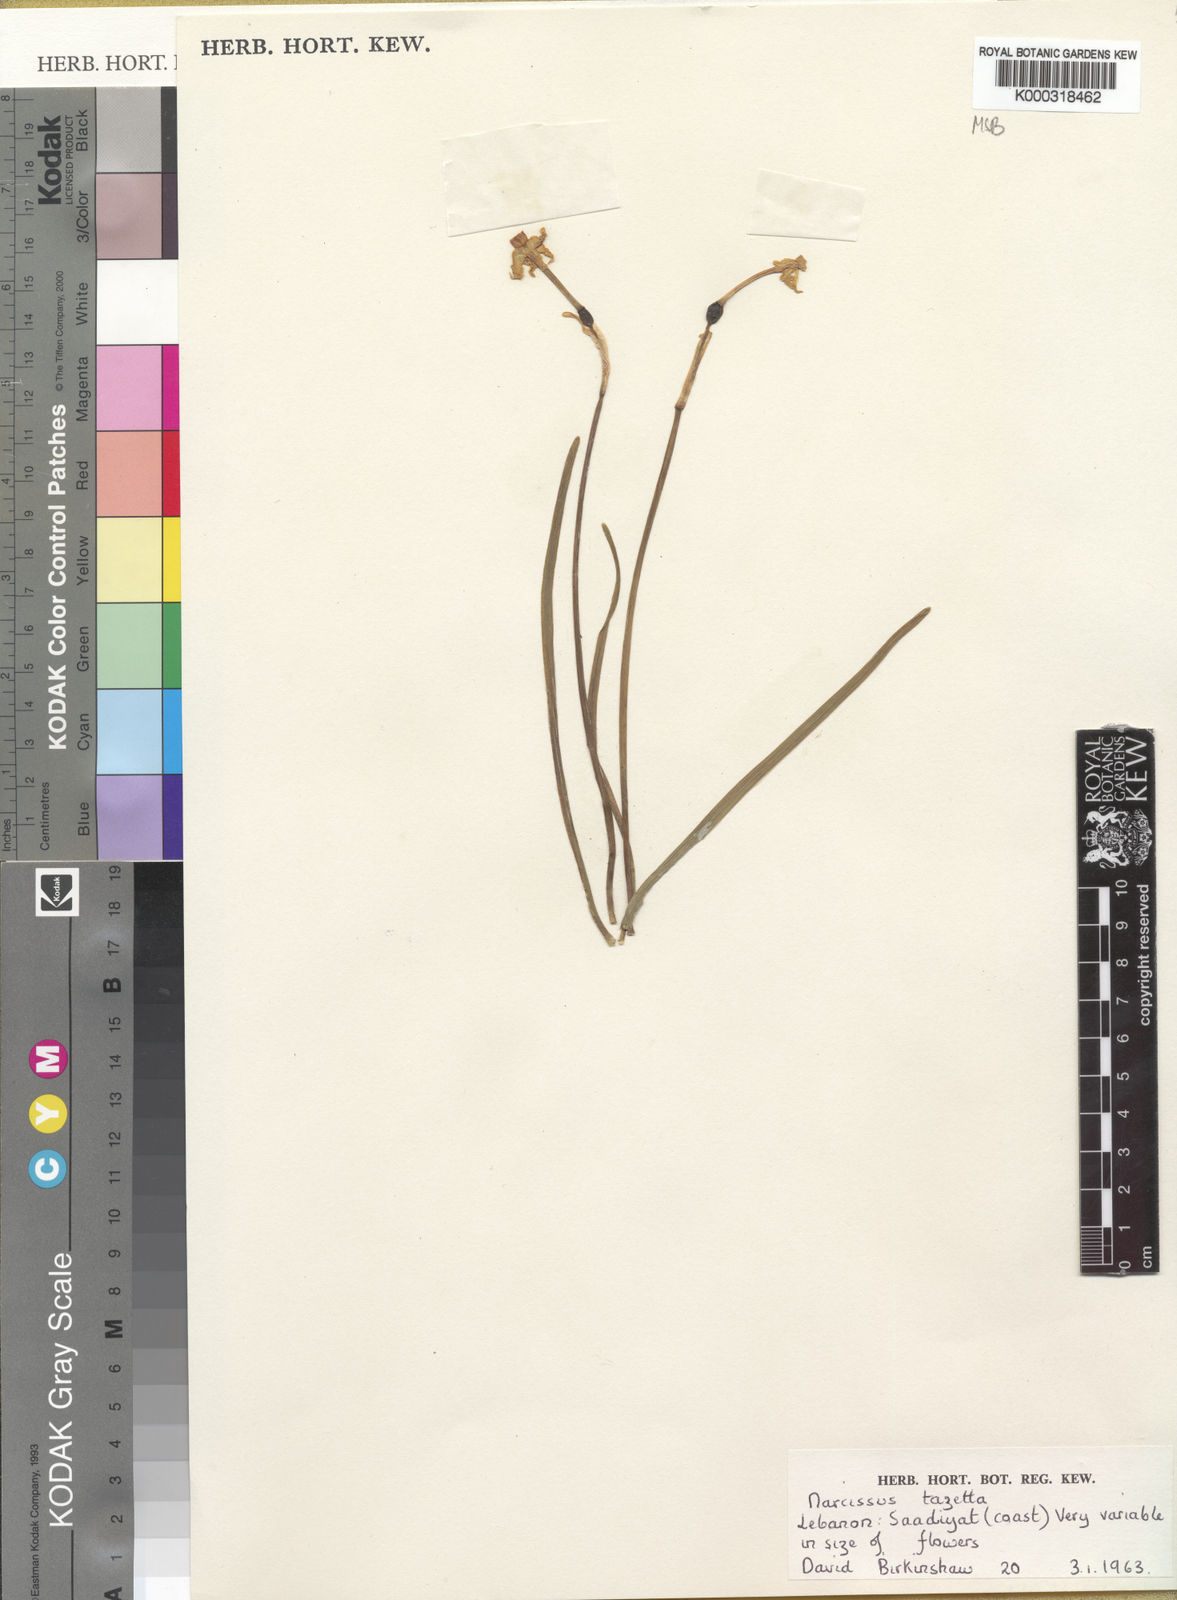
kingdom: Plantae
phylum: Tracheophyta
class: Liliopsida
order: Asparagales
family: Amaryllidaceae
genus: Narcissus
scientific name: Narcissus tazetta
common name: Bunch-flowered daffodil
